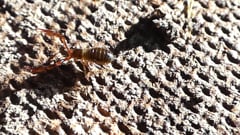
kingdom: Animalia
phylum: Arthropoda
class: Arachnida
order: Pseudoscorpiones
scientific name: Pseudoscorpiones
